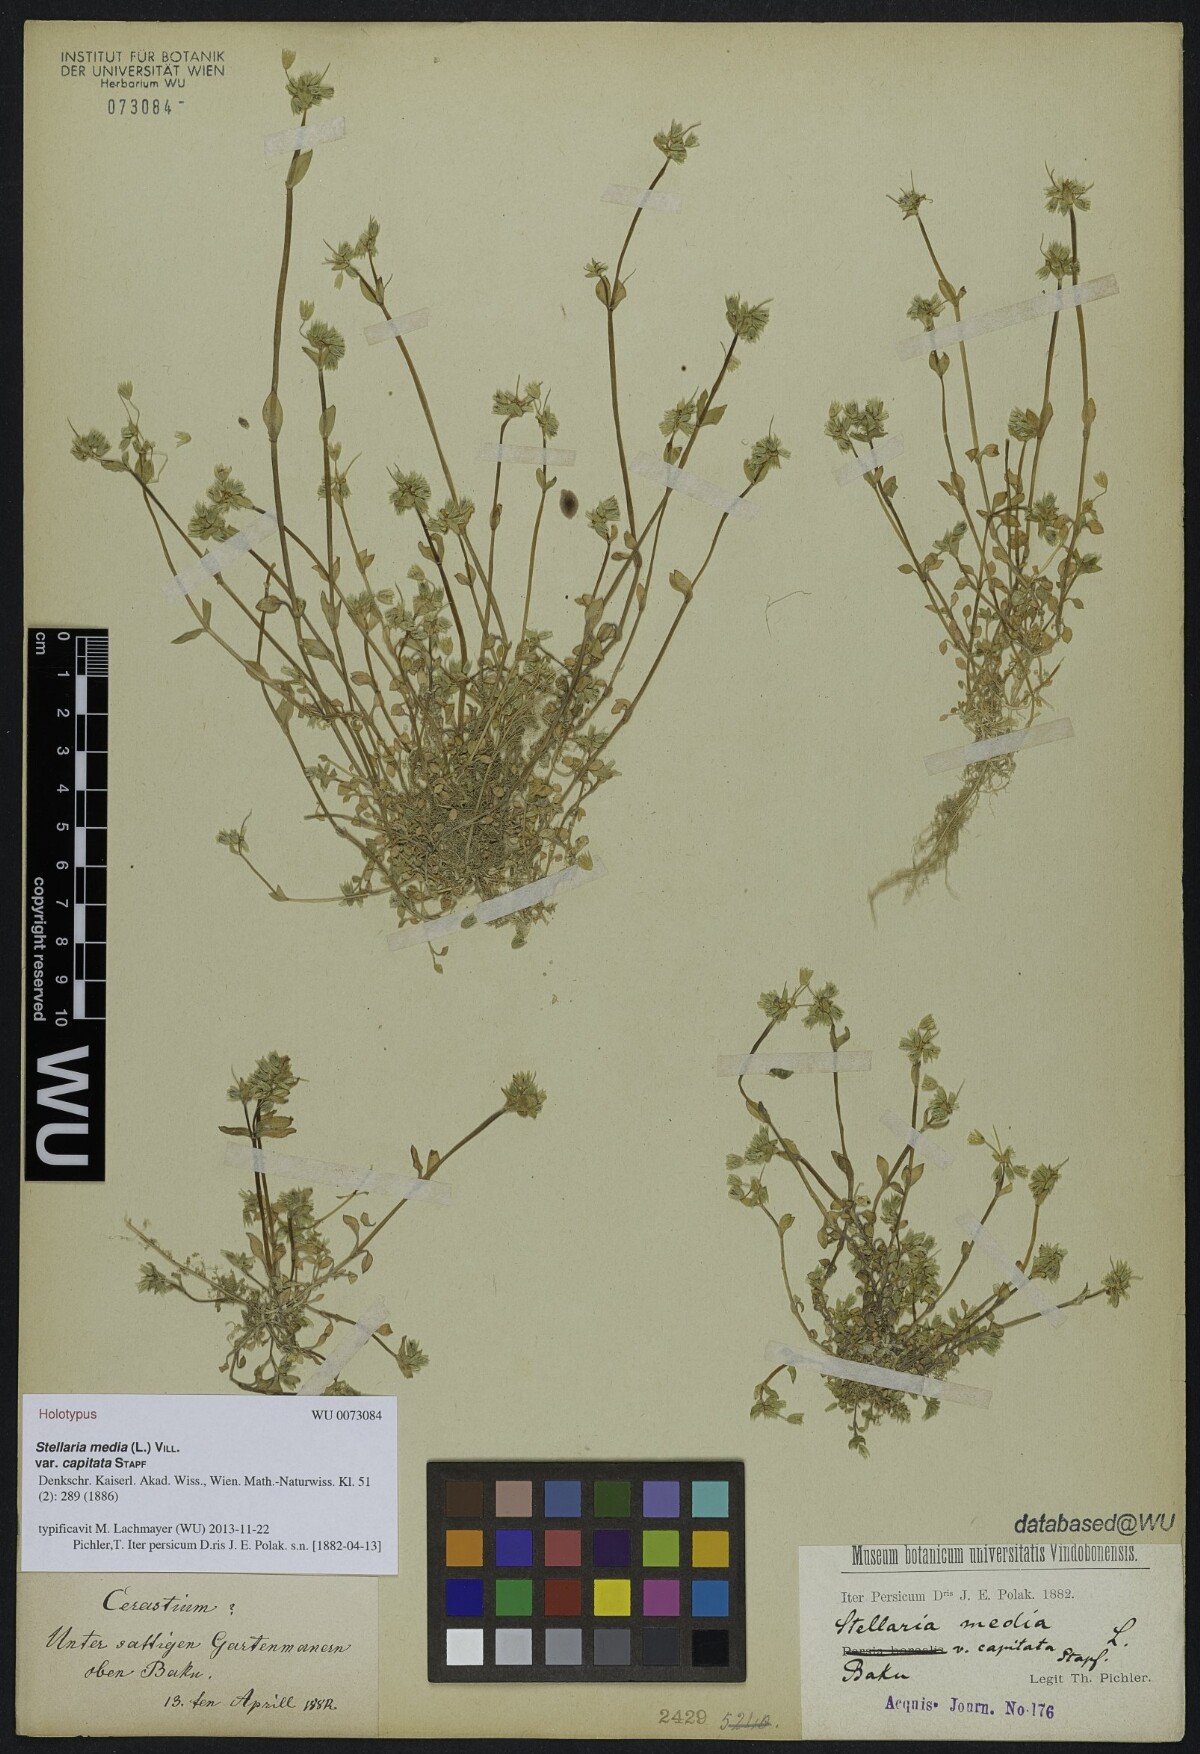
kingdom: Plantae
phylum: Tracheophyta
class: Magnoliopsida
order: Caryophyllales
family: Caryophyllaceae
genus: Stellaria
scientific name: Stellaria media
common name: Common chickweed
